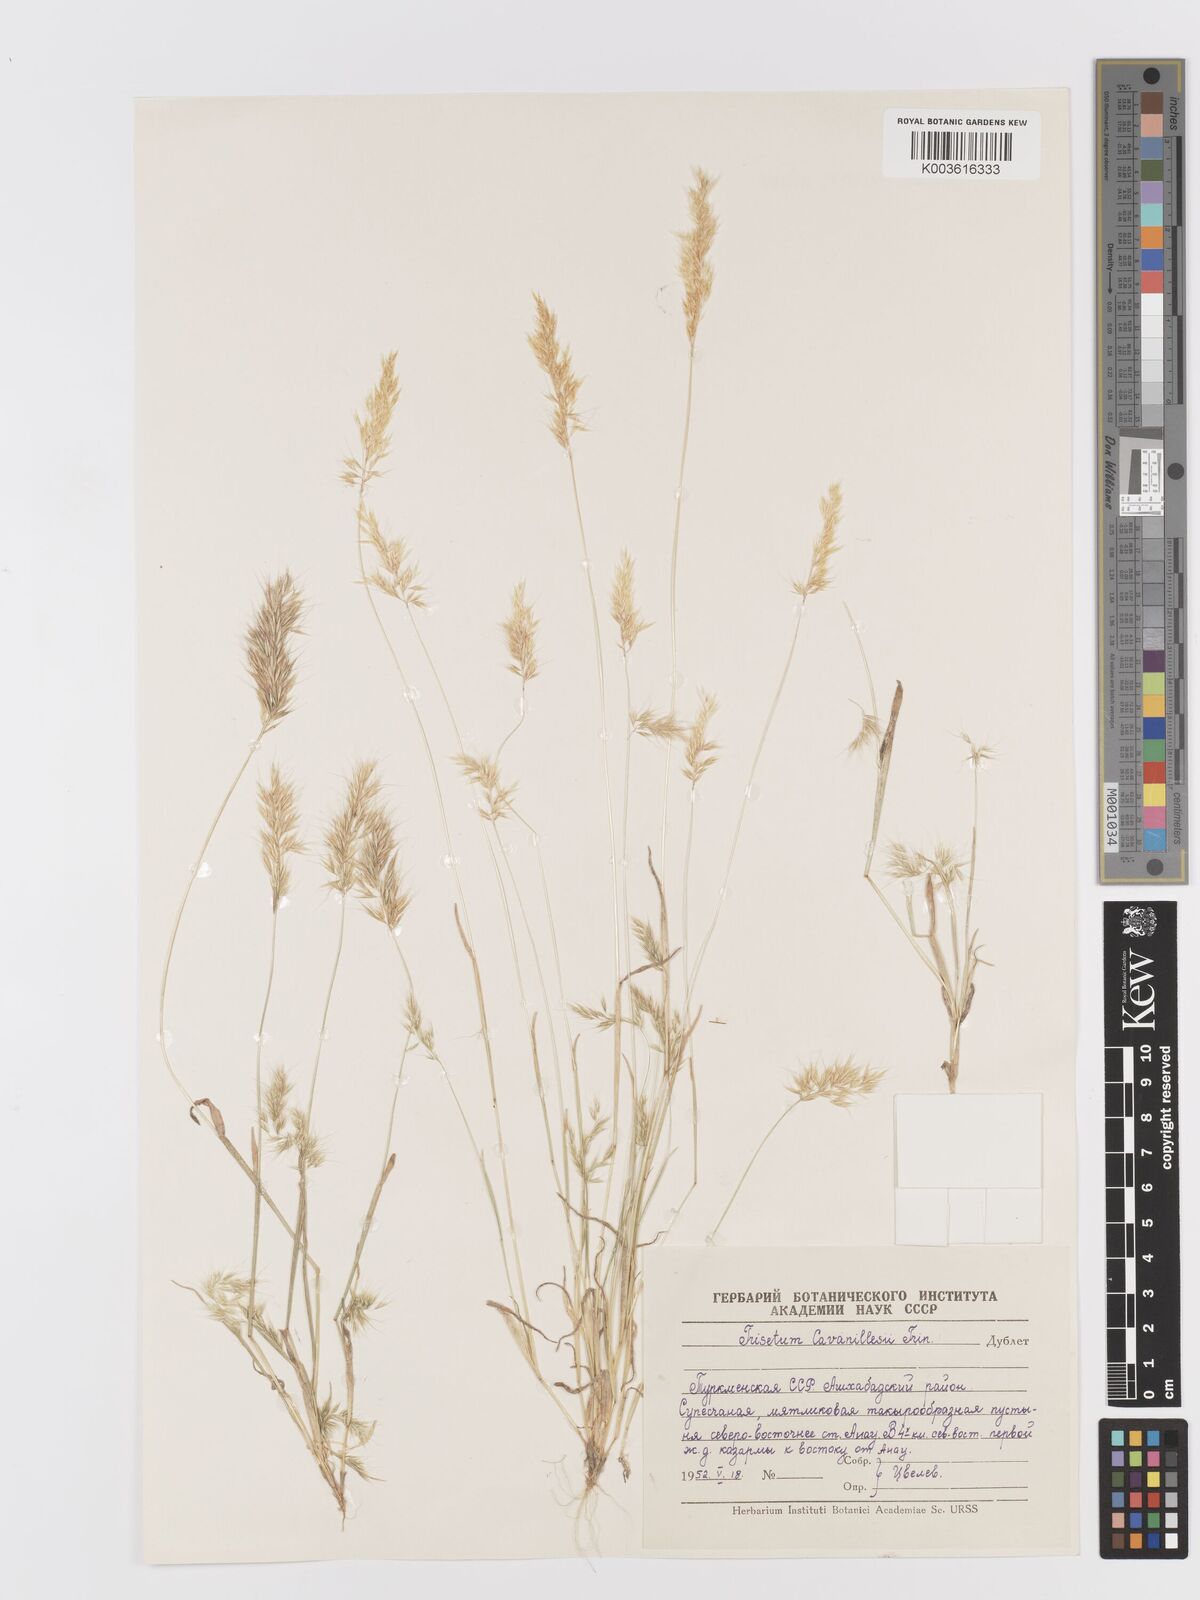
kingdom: Plantae
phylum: Tracheophyta
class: Liliopsida
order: Poales
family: Poaceae
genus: Trisetaria
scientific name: Trisetaria loeflingiana
